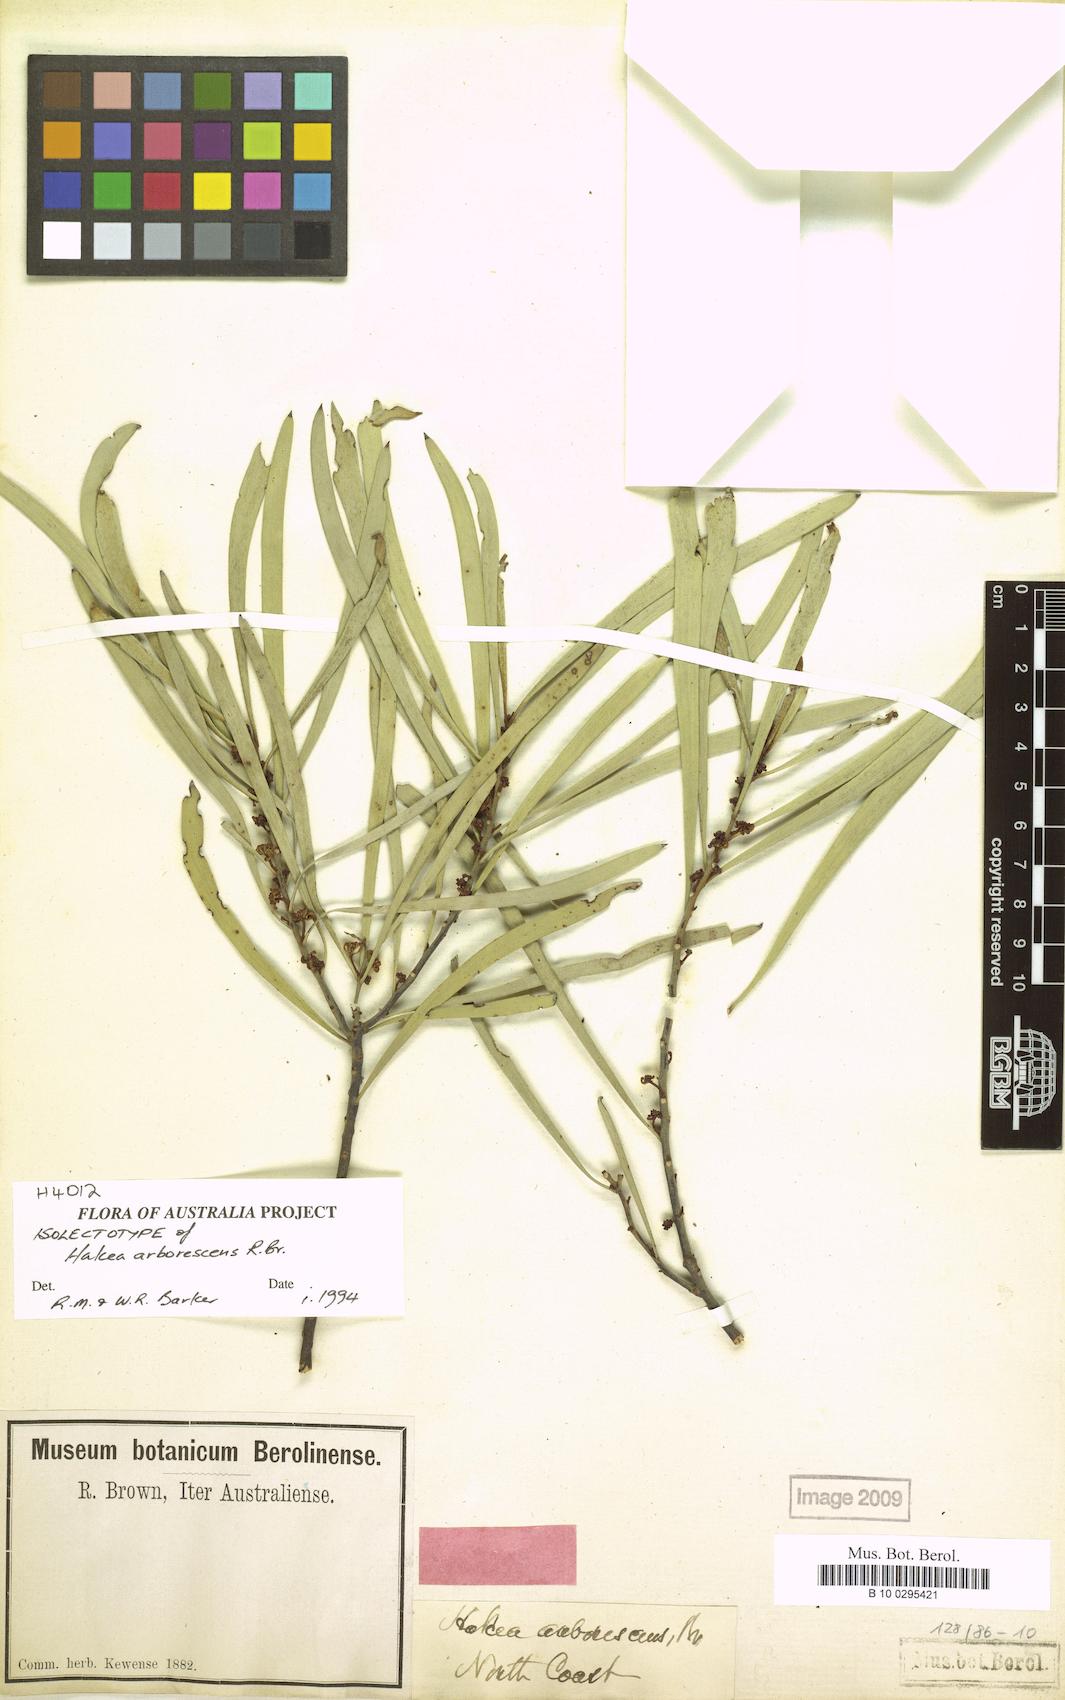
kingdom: Plantae
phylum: Tracheophyta
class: Magnoliopsida
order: Proteales
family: Proteaceae
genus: Hakea
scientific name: Hakea arborescens
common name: Yellow hakea
